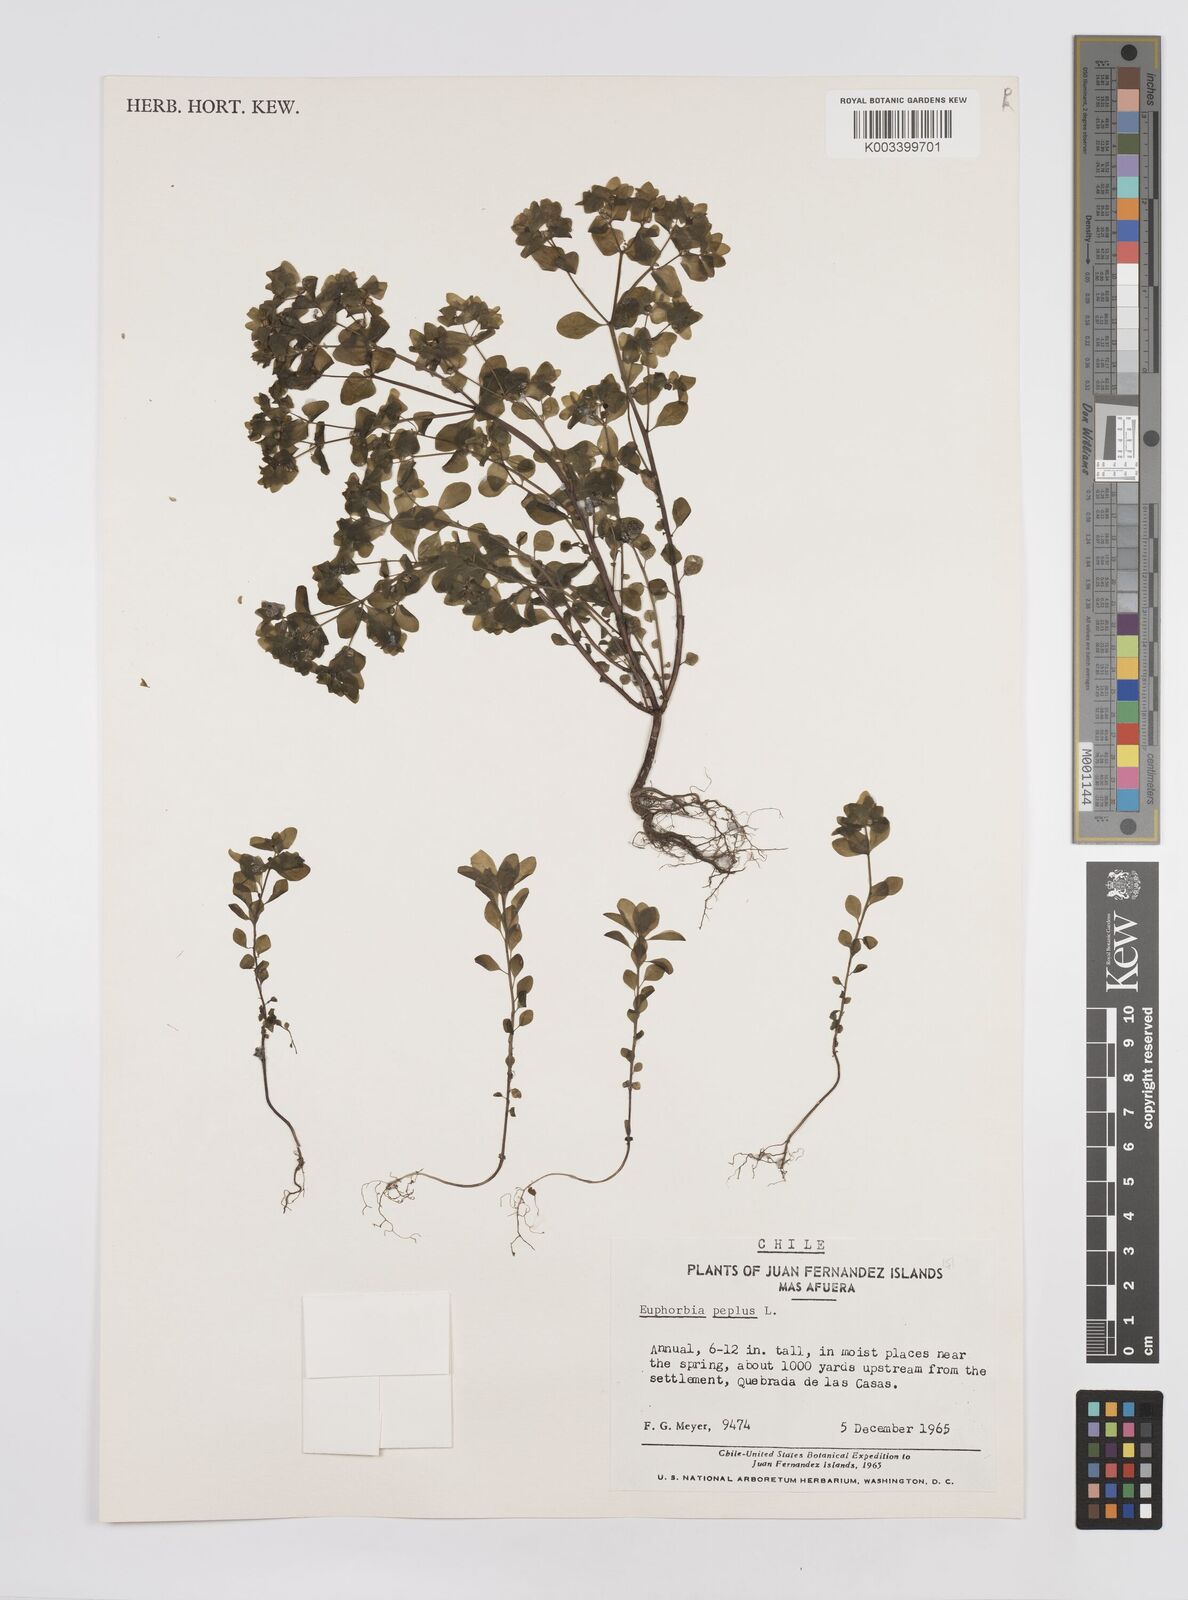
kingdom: Plantae
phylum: Tracheophyta
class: Magnoliopsida
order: Malpighiales
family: Euphorbiaceae
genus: Euphorbia
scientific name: Euphorbia peplus
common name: Petty spurge
